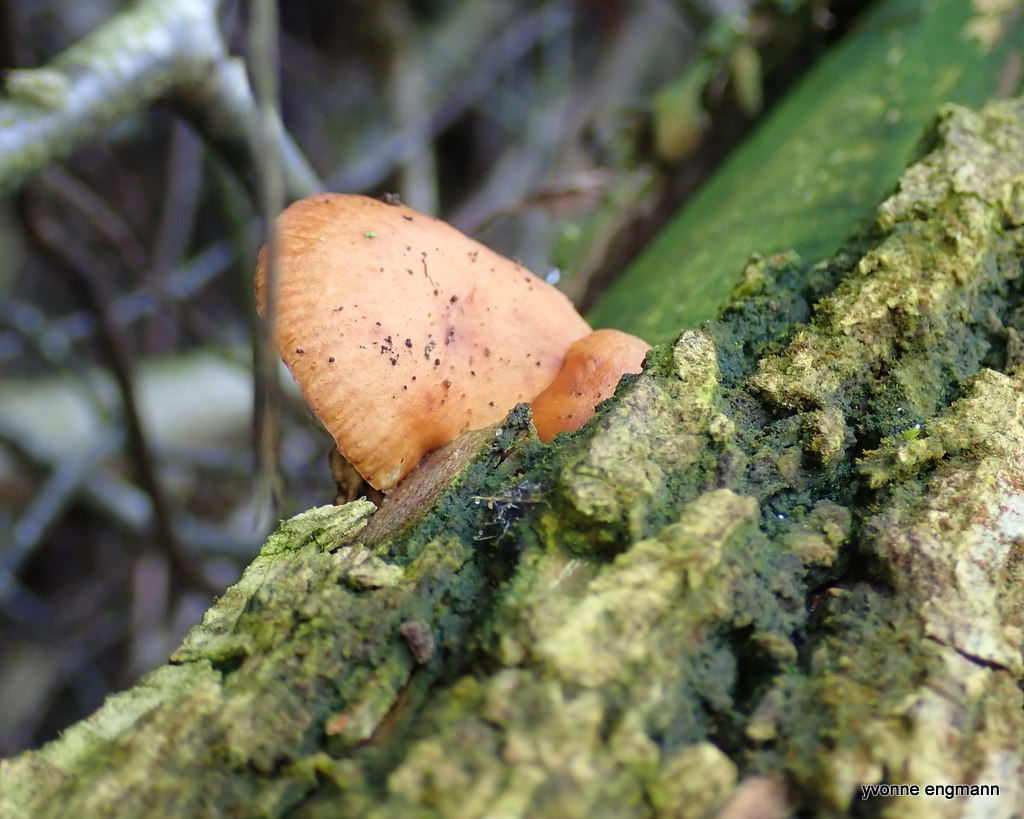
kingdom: Fungi
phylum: Basidiomycota
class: Agaricomycetes
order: Agaricales
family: Physalacriaceae
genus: Flammulina
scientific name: Flammulina velutipes
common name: gul fløjlsfod
